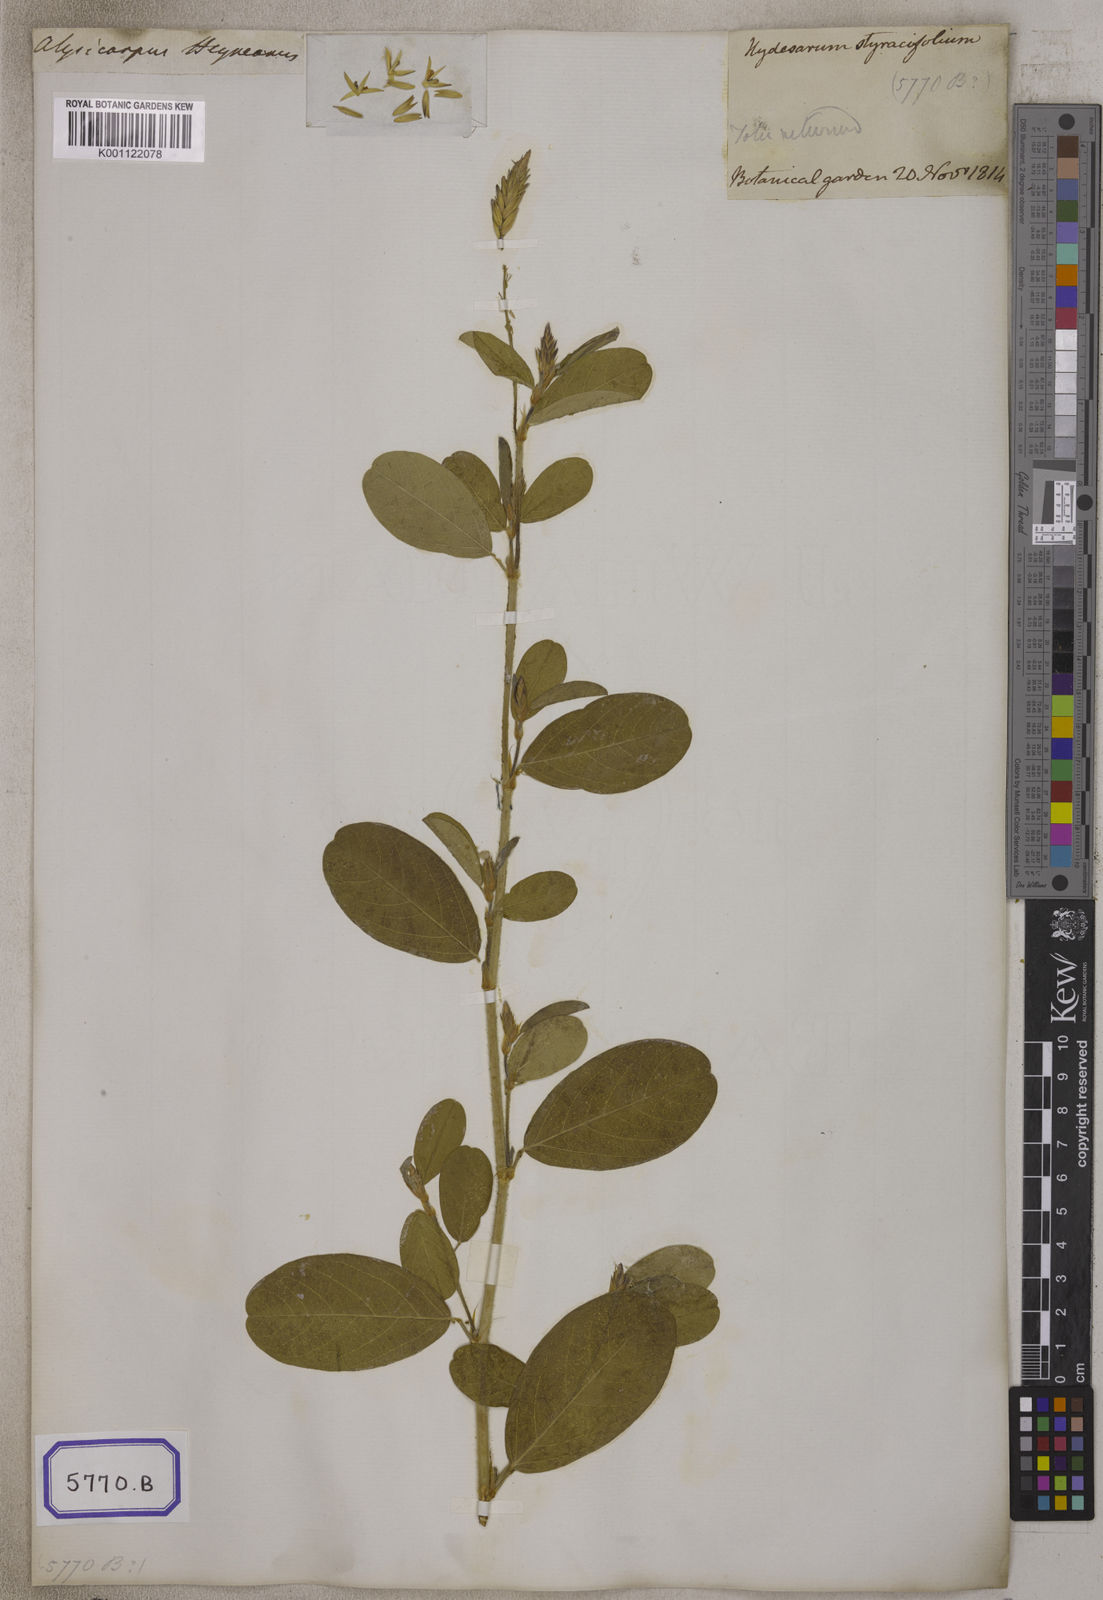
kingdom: Plantae
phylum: Tracheophyta
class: Magnoliopsida
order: Fabales
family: Fabaceae
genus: Alysicarpus
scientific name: Alysicarpus scariosus
